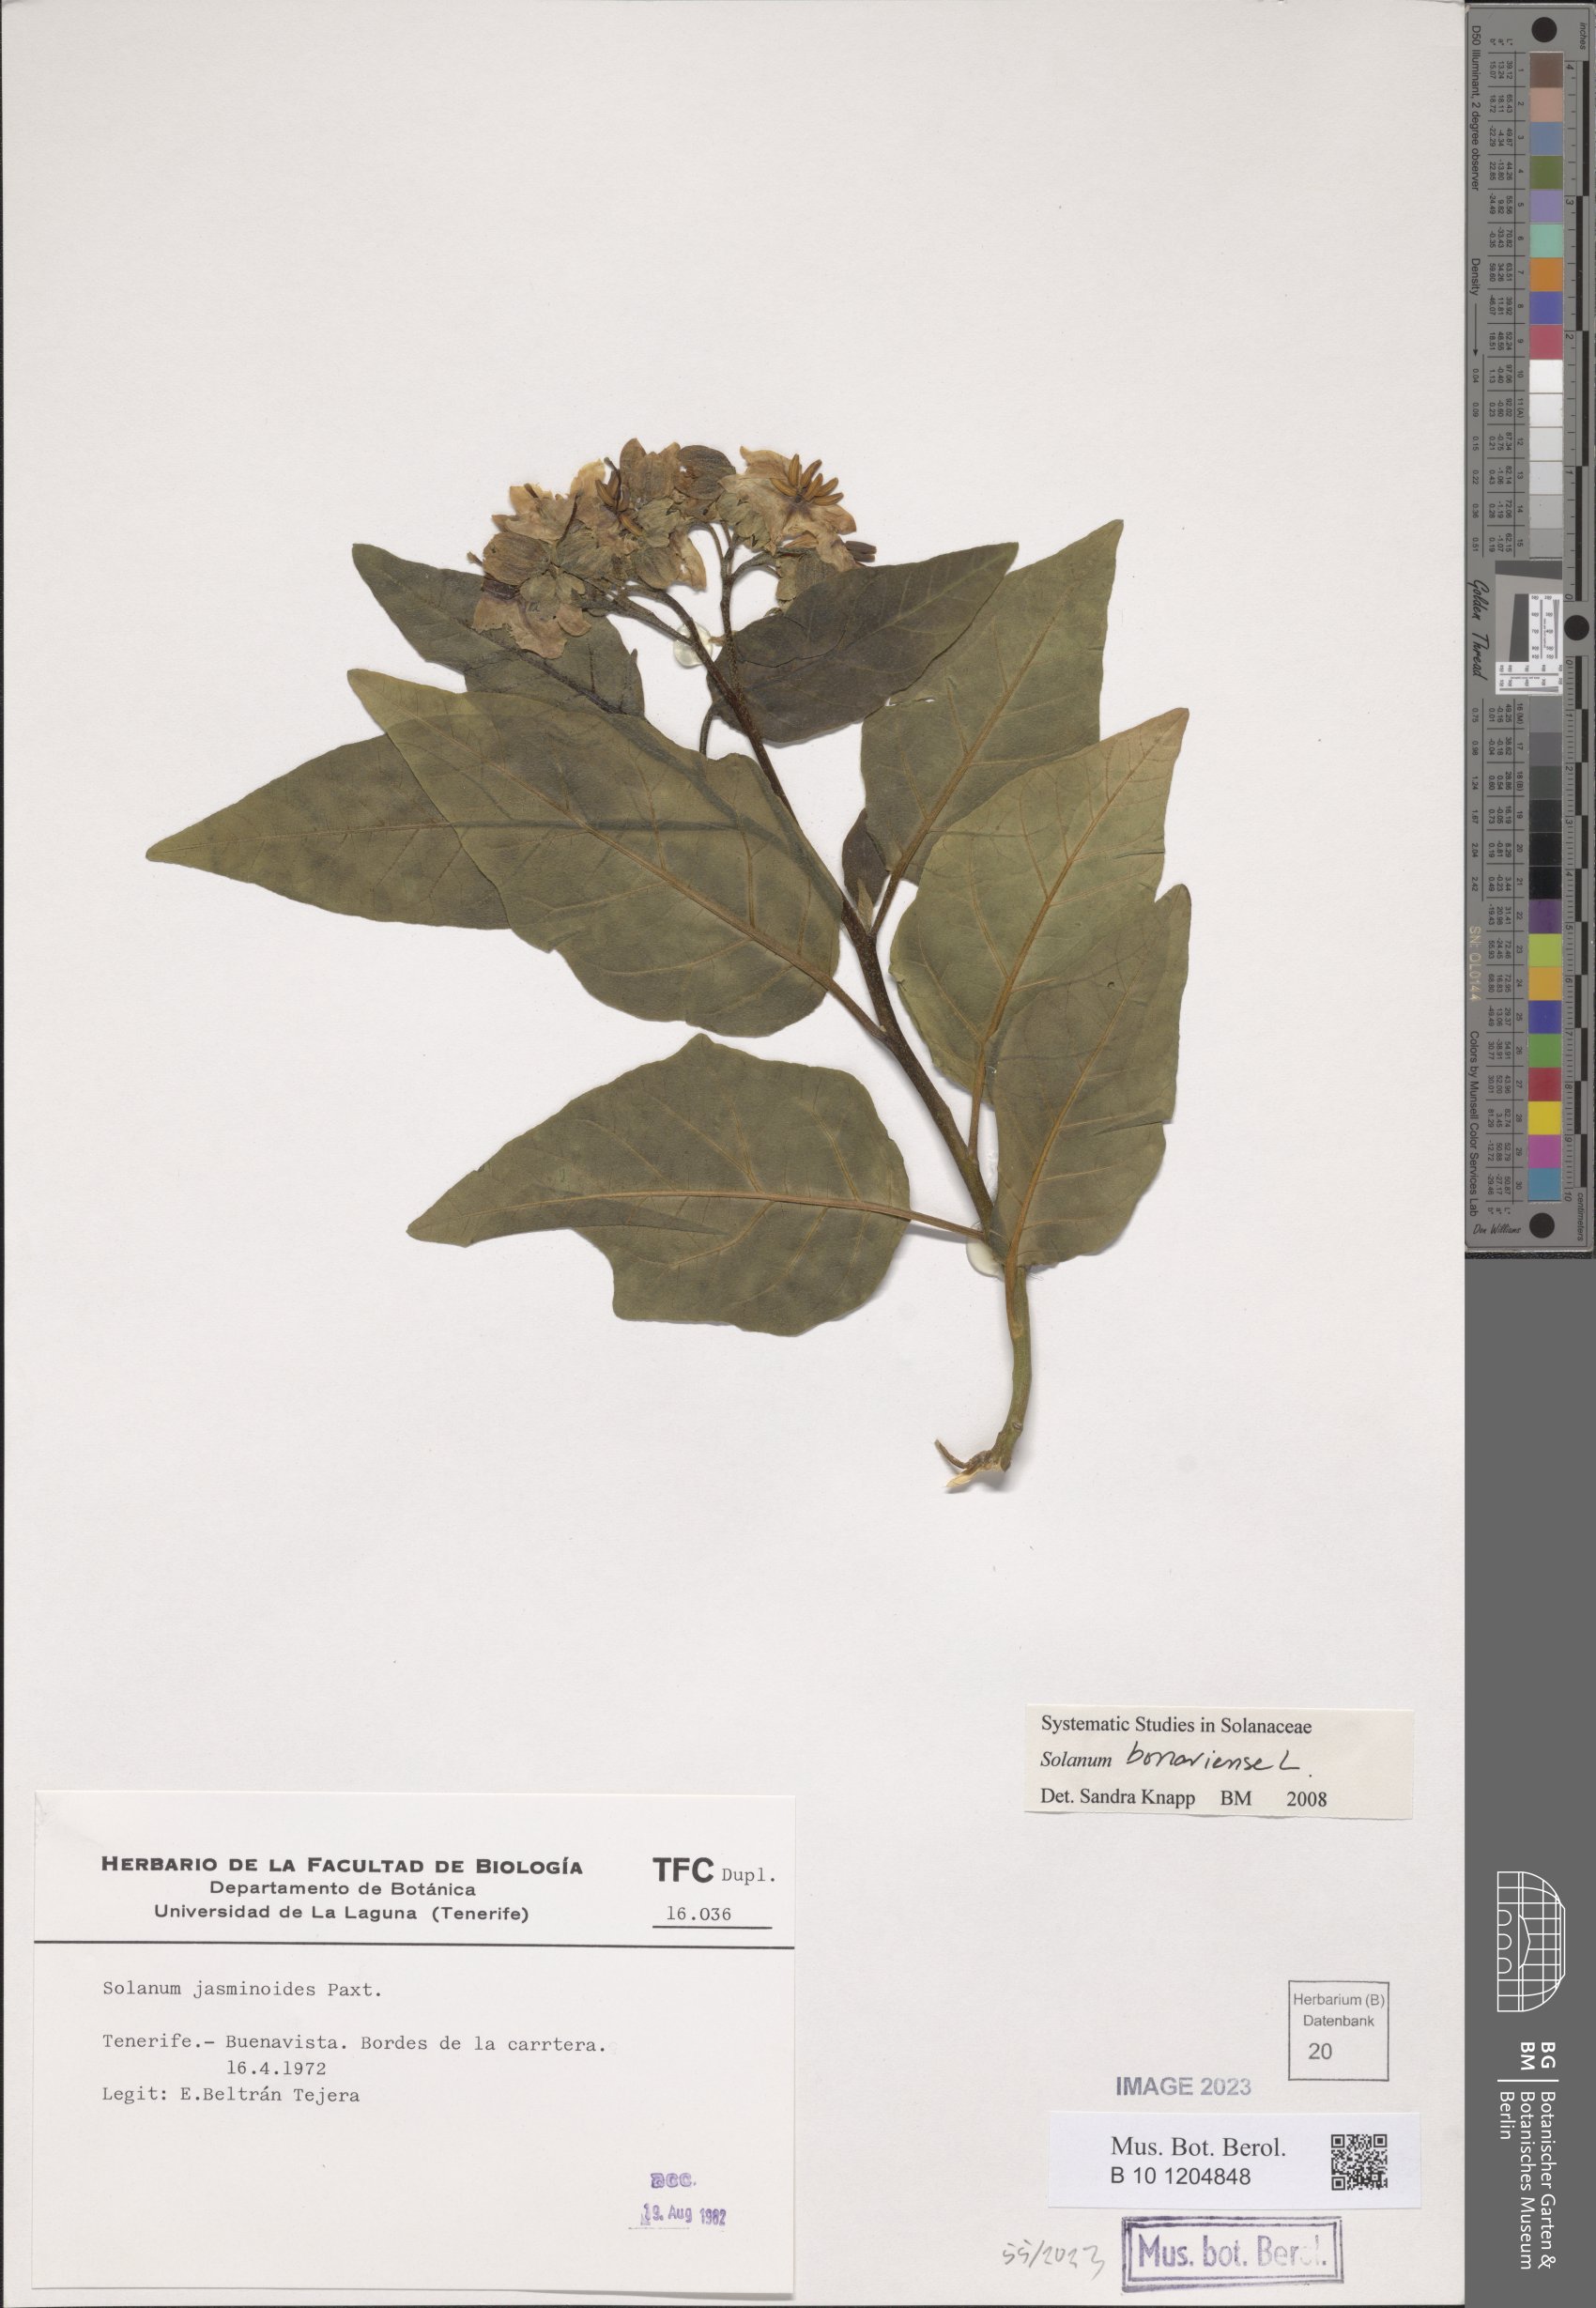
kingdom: Plantae
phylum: Tracheophyta
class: Magnoliopsida
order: Solanales
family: Solanaceae
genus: Solanum
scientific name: Solanum bonariense
